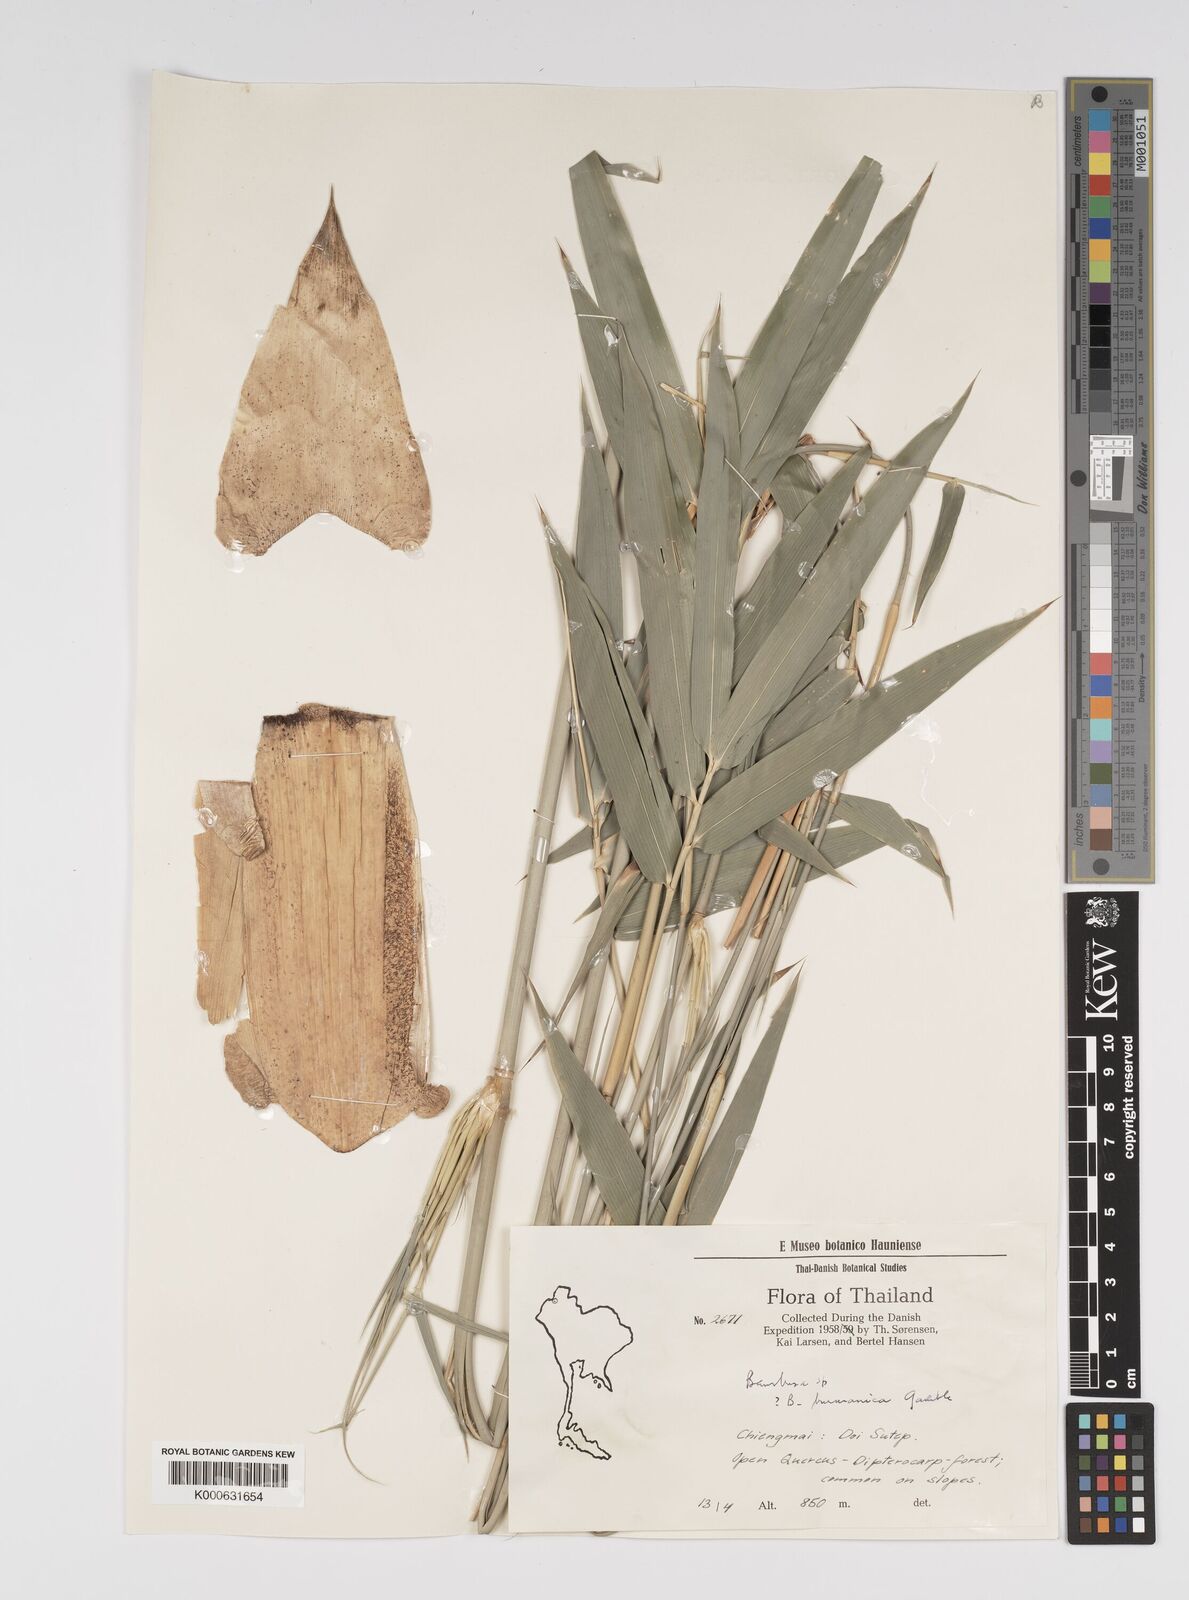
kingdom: Plantae
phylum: Tracheophyta
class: Liliopsida
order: Poales
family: Poaceae
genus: Bambusa
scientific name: Bambusa
